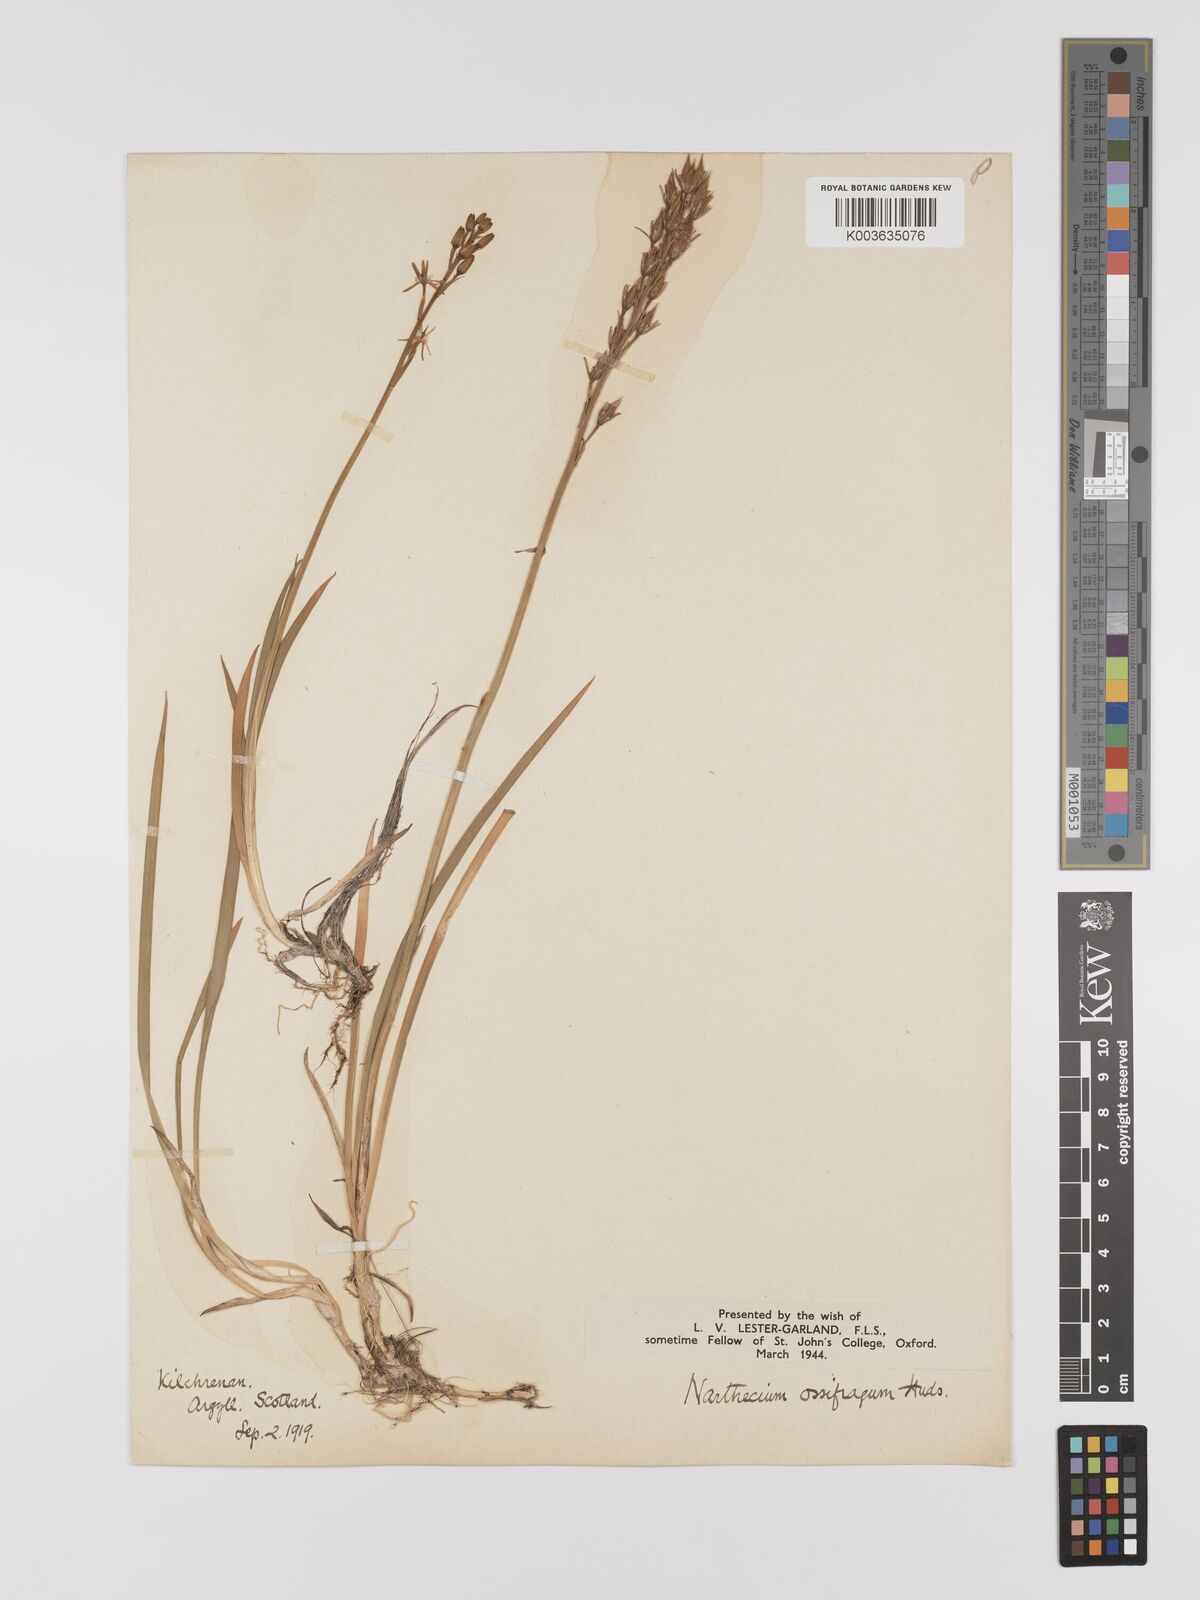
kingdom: Plantae
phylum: Tracheophyta
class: Liliopsida
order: Dioscoreales
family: Nartheciaceae
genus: Narthecium
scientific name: Narthecium
